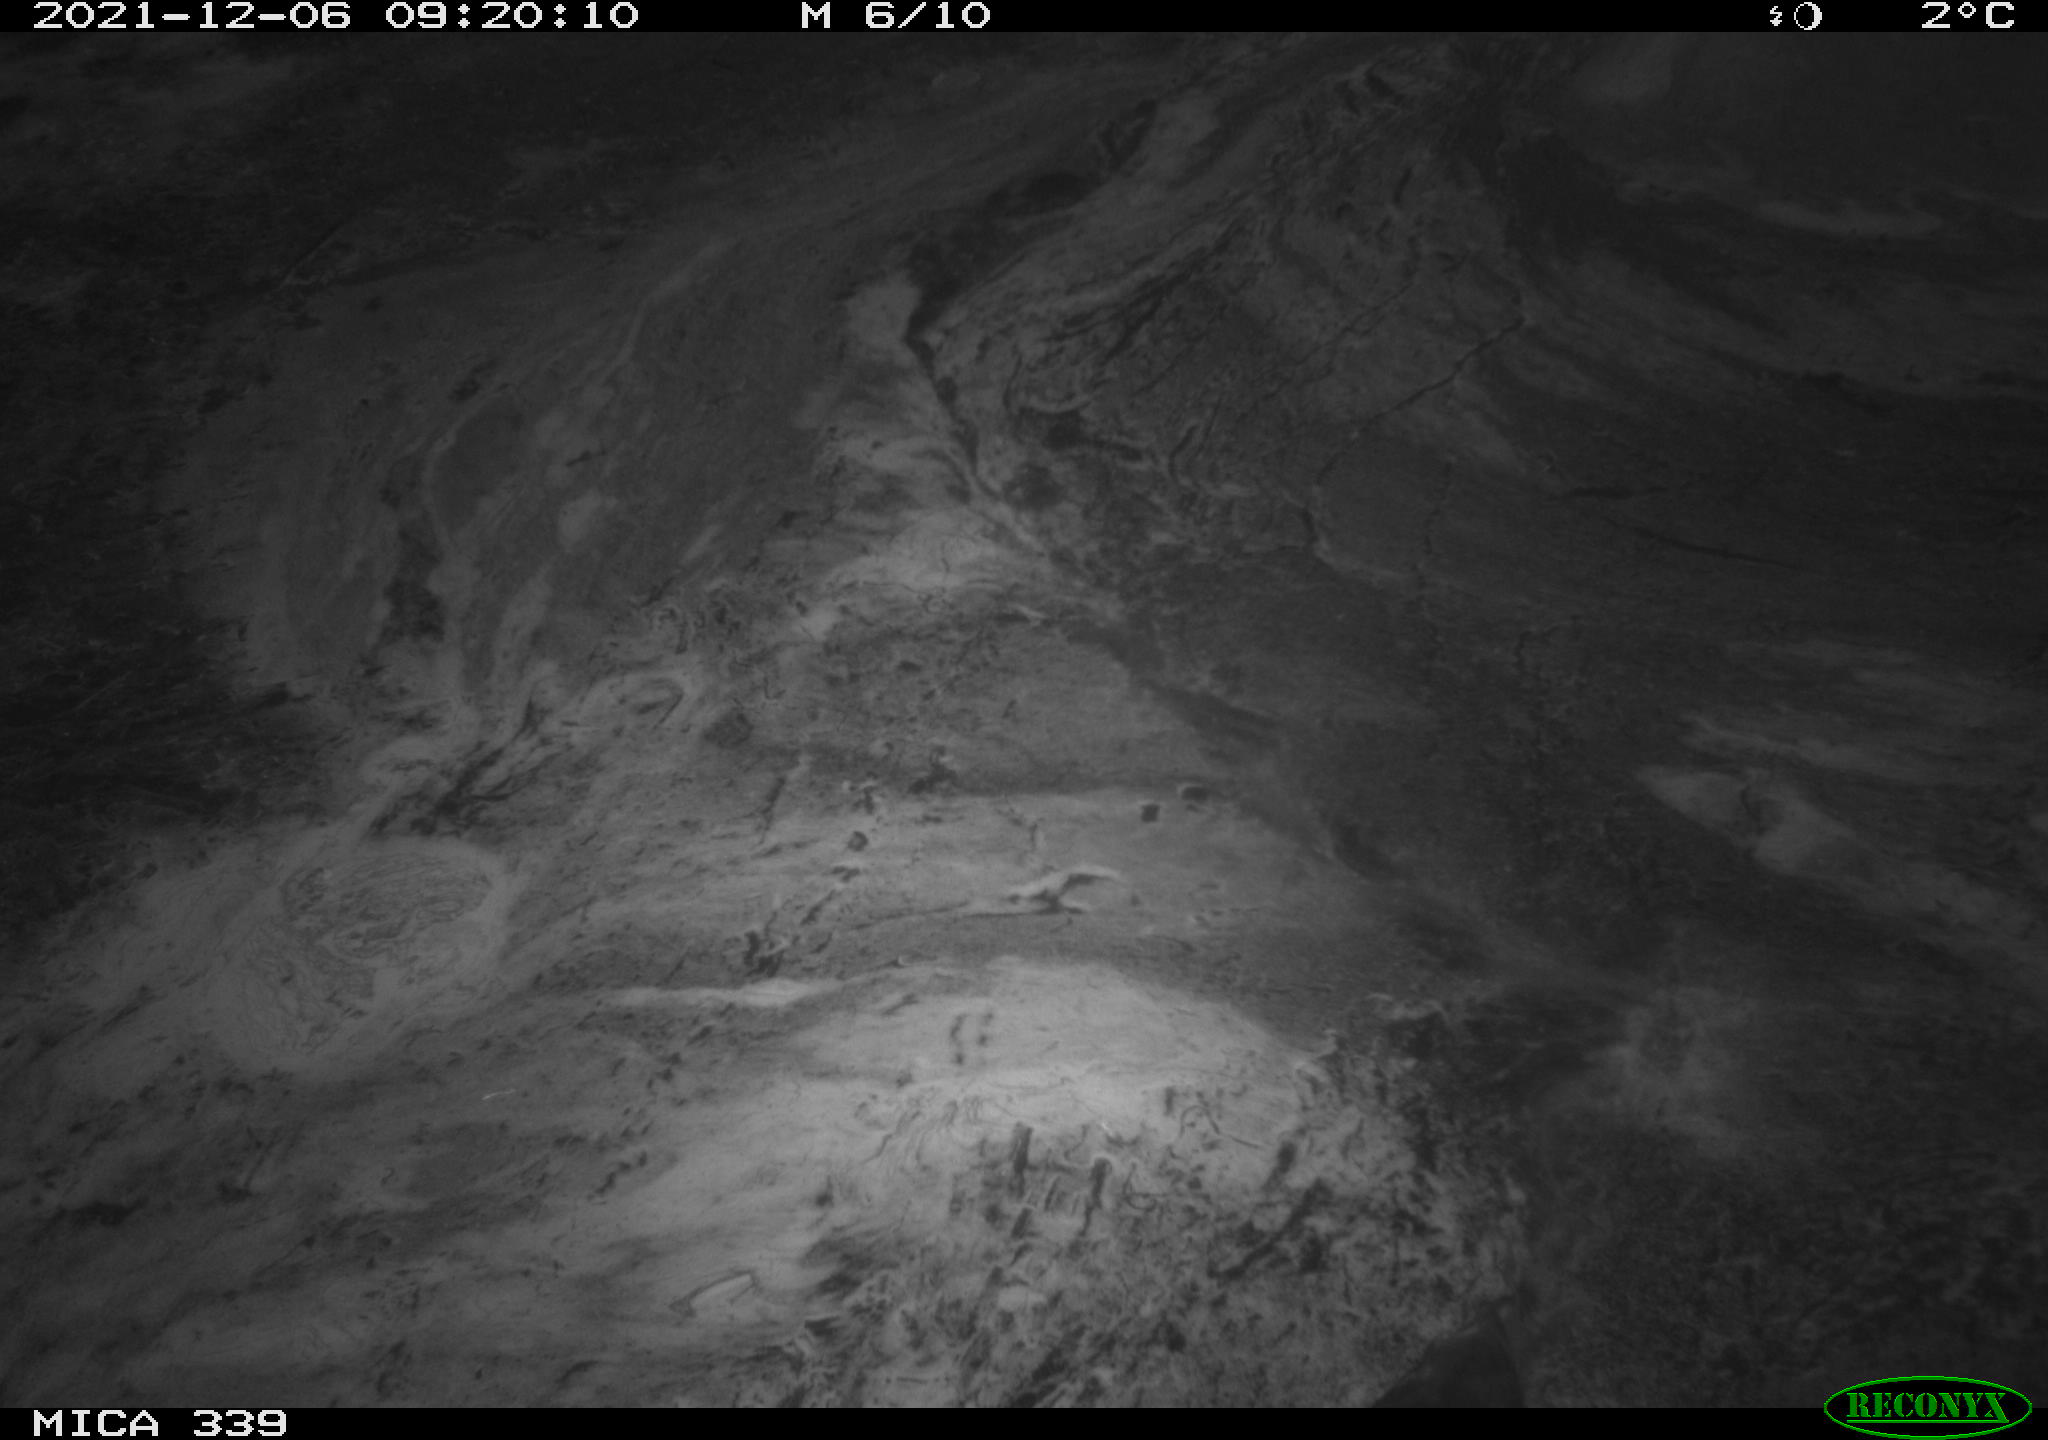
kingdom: Animalia
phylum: Chordata
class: Aves
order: Gruiformes
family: Rallidae
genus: Gallinula
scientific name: Gallinula chloropus
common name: Common moorhen
